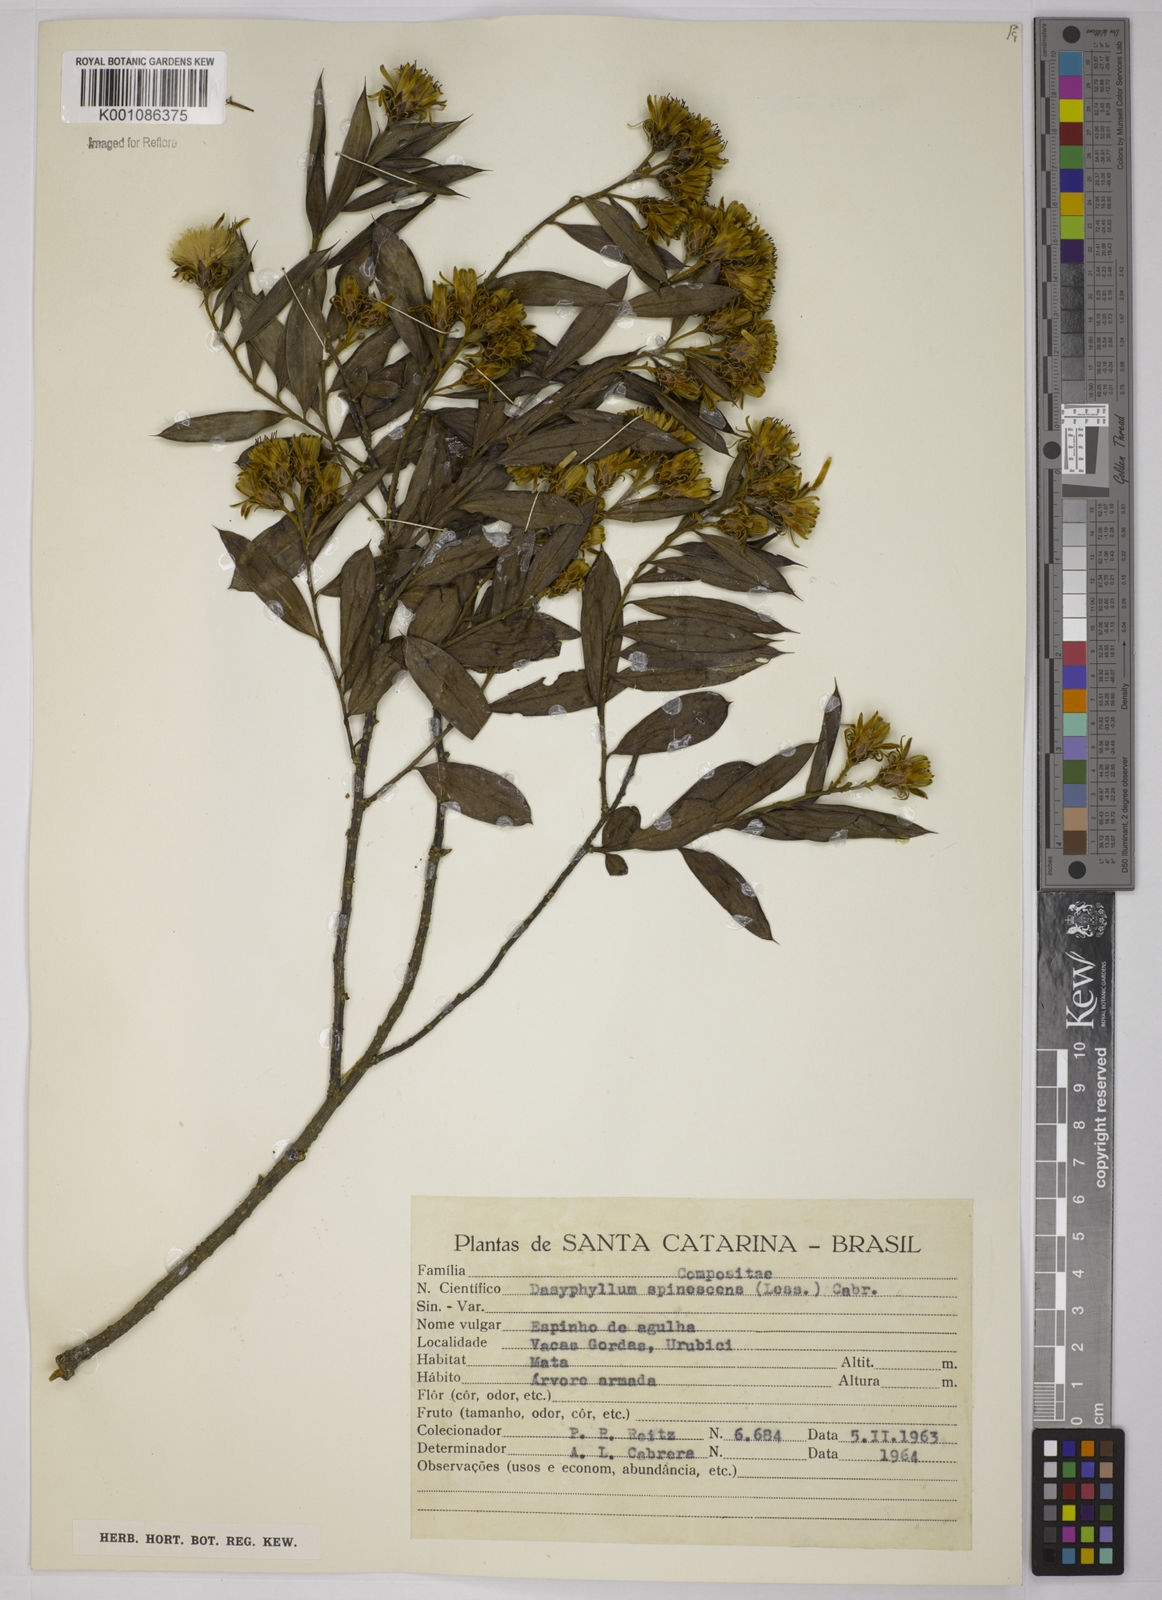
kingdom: Plantae
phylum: Tracheophyta
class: Magnoliopsida
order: Asterales
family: Asteraceae
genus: Dasyphyllum
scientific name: Dasyphyllum spinescens
